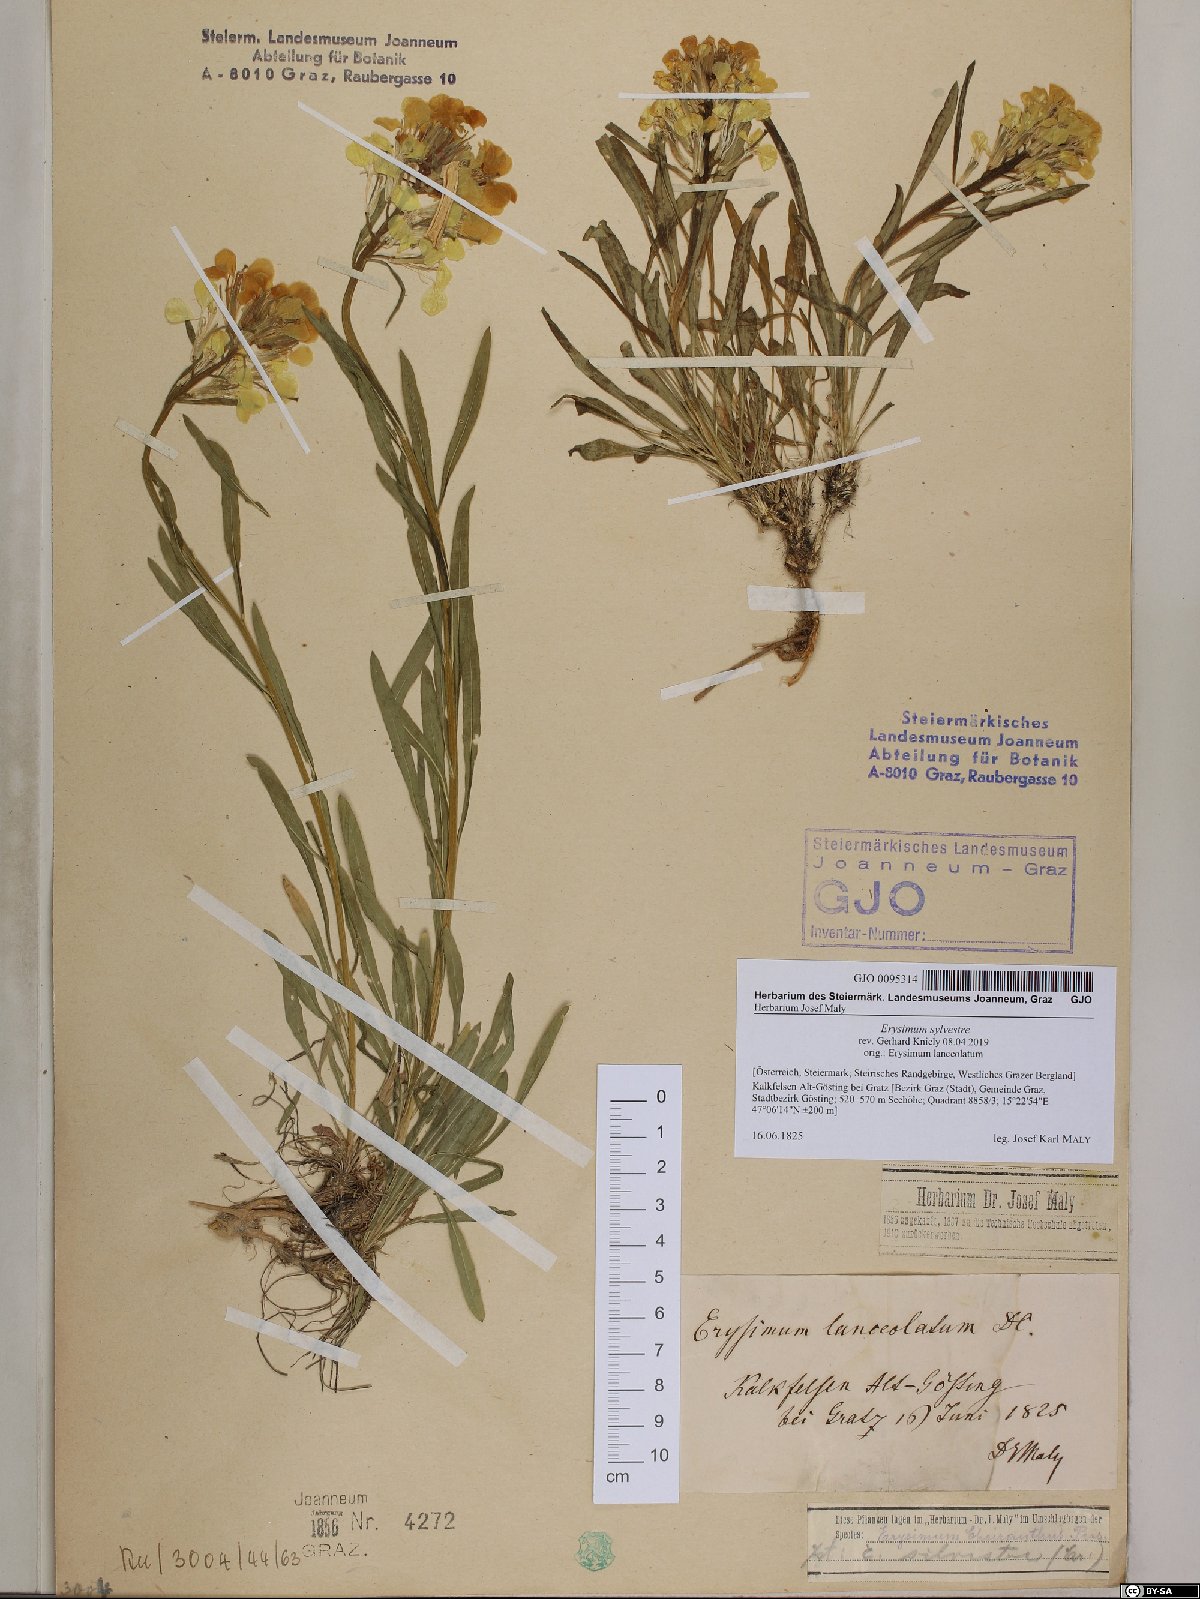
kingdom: Plantae
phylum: Tracheophyta
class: Magnoliopsida
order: Brassicales
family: Brassicaceae
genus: Erysimum
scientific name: Erysimum sylvestre
